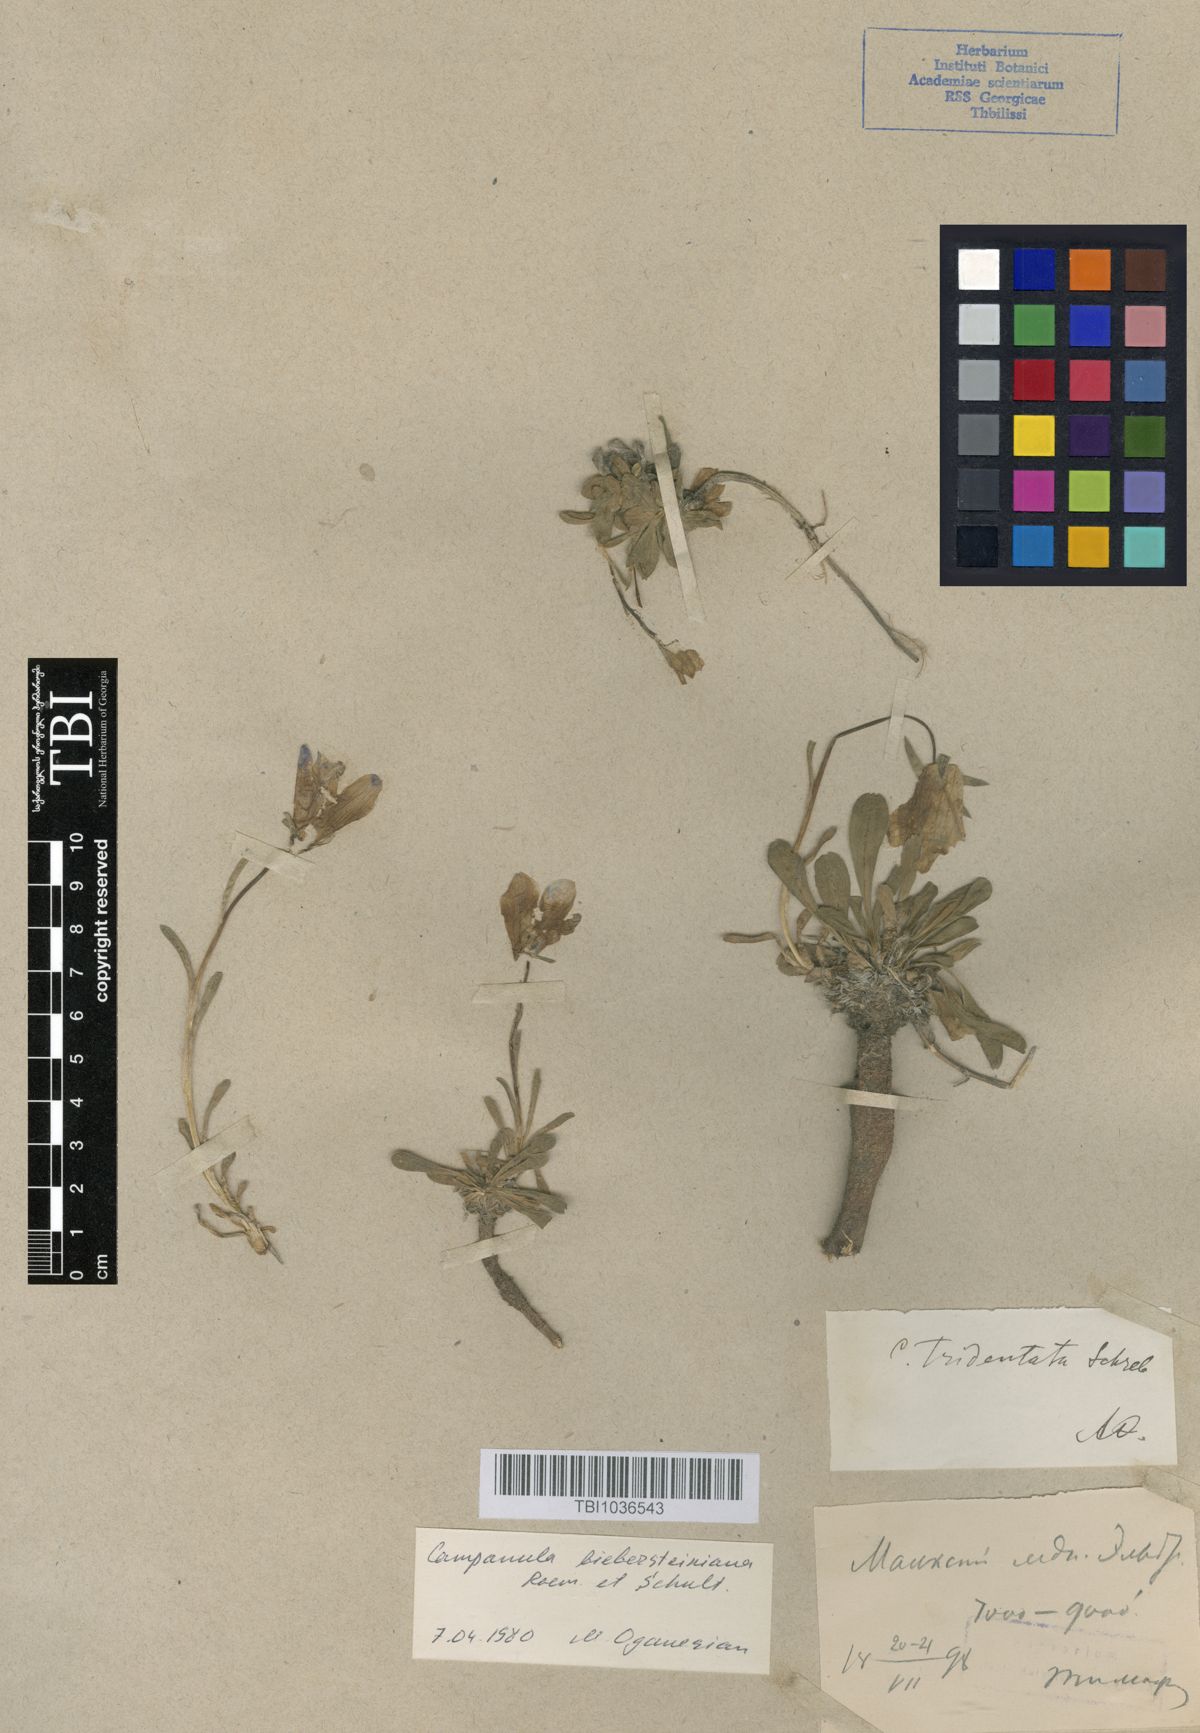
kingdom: Plantae
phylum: Tracheophyta
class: Magnoliopsida
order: Asterales
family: Campanulaceae
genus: Campanula
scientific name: Campanula tridentata
